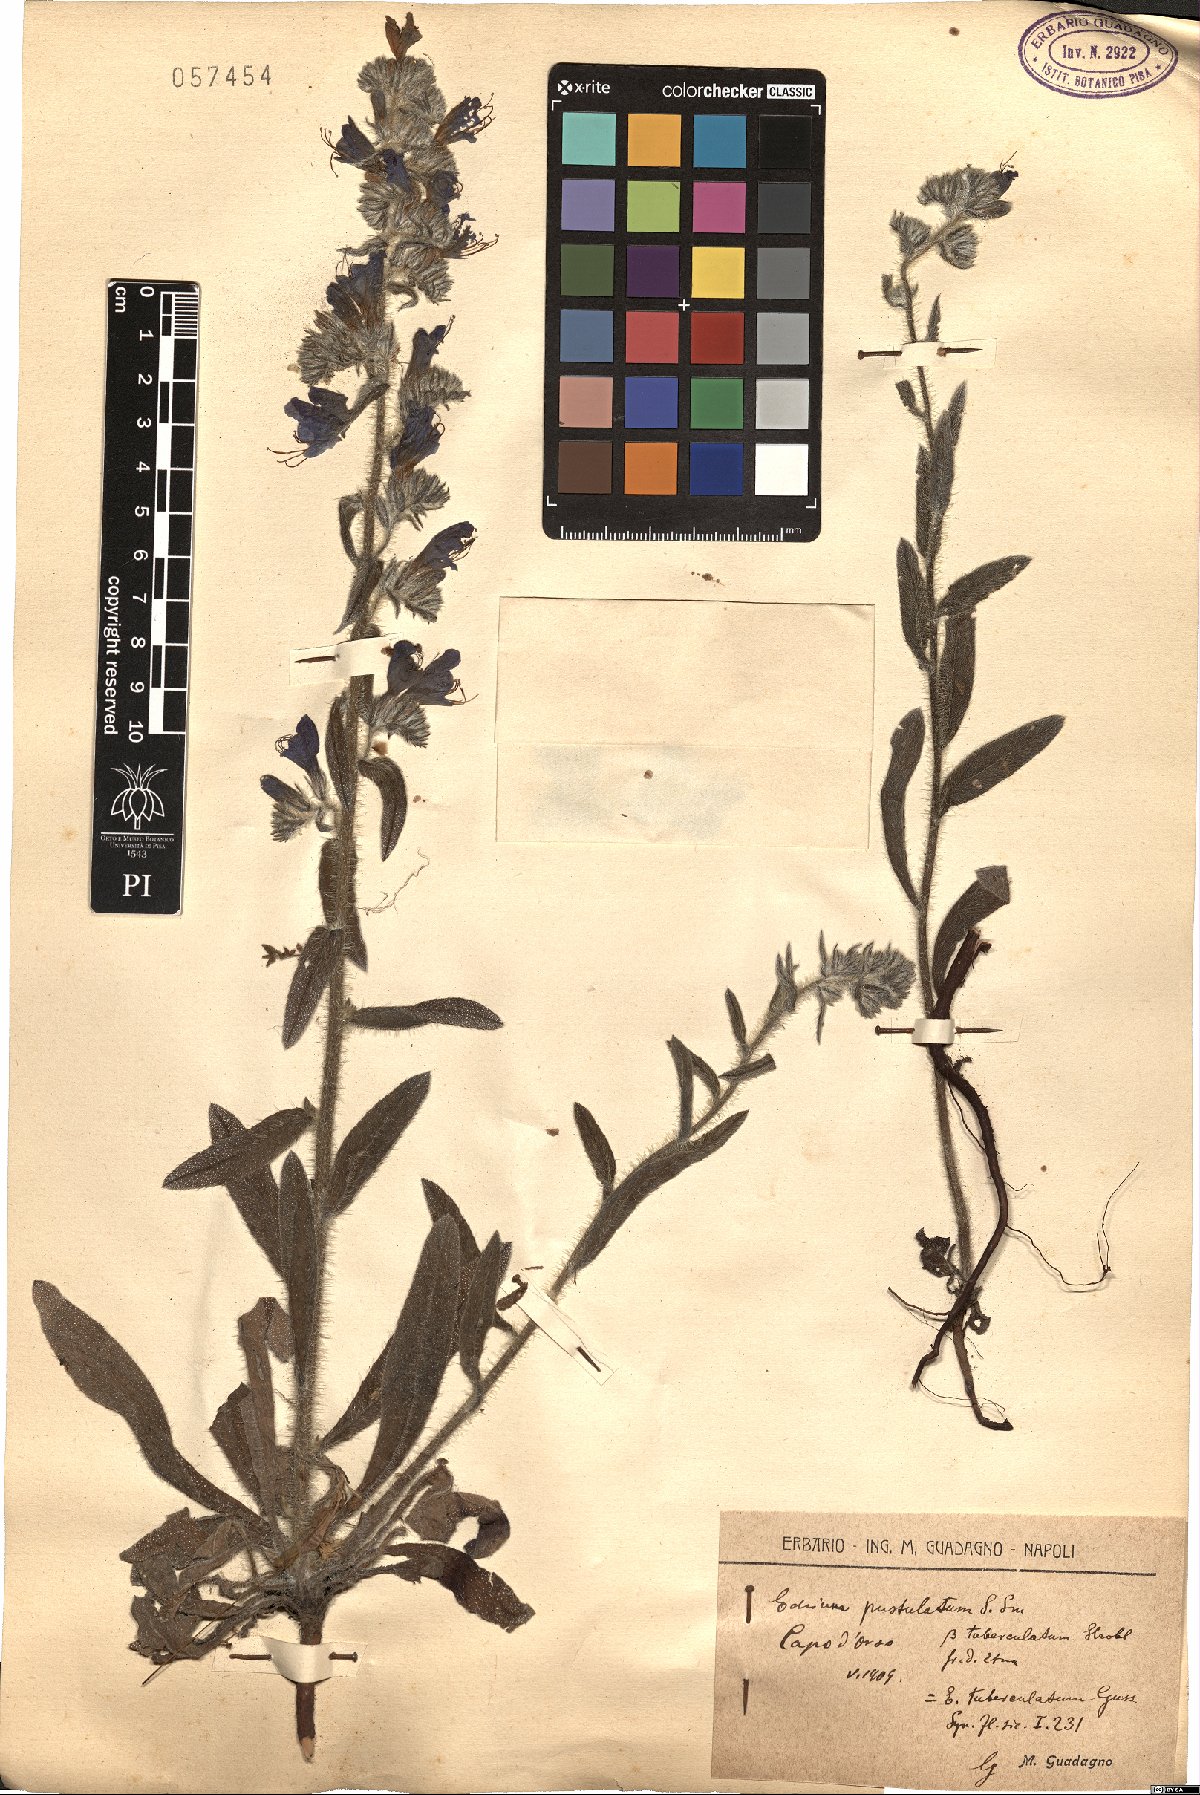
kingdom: Plantae
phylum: Tracheophyta
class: Magnoliopsida
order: Boraginales
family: Boraginaceae
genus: Echium
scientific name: Echium
